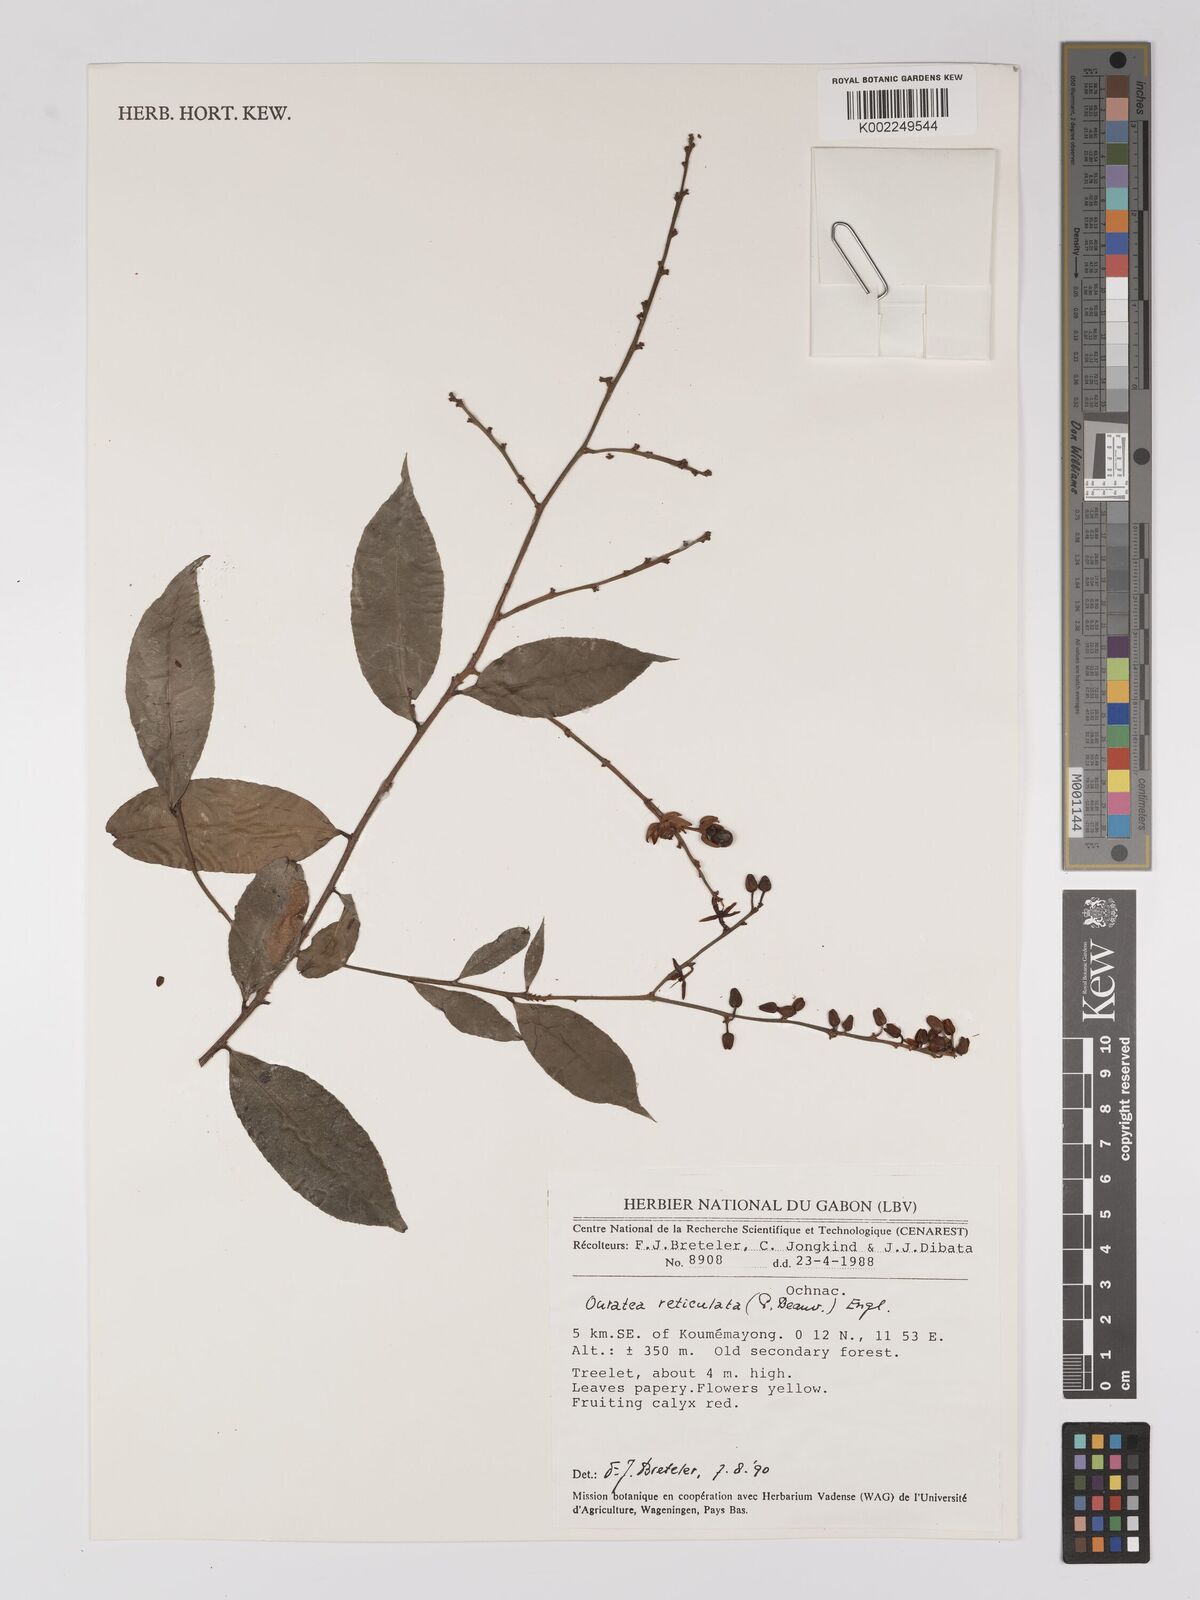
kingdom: Plantae
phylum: Tracheophyta
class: Magnoliopsida
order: Malpighiales
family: Ochnaceae
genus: Campylospermum
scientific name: Campylospermum reticulatum
